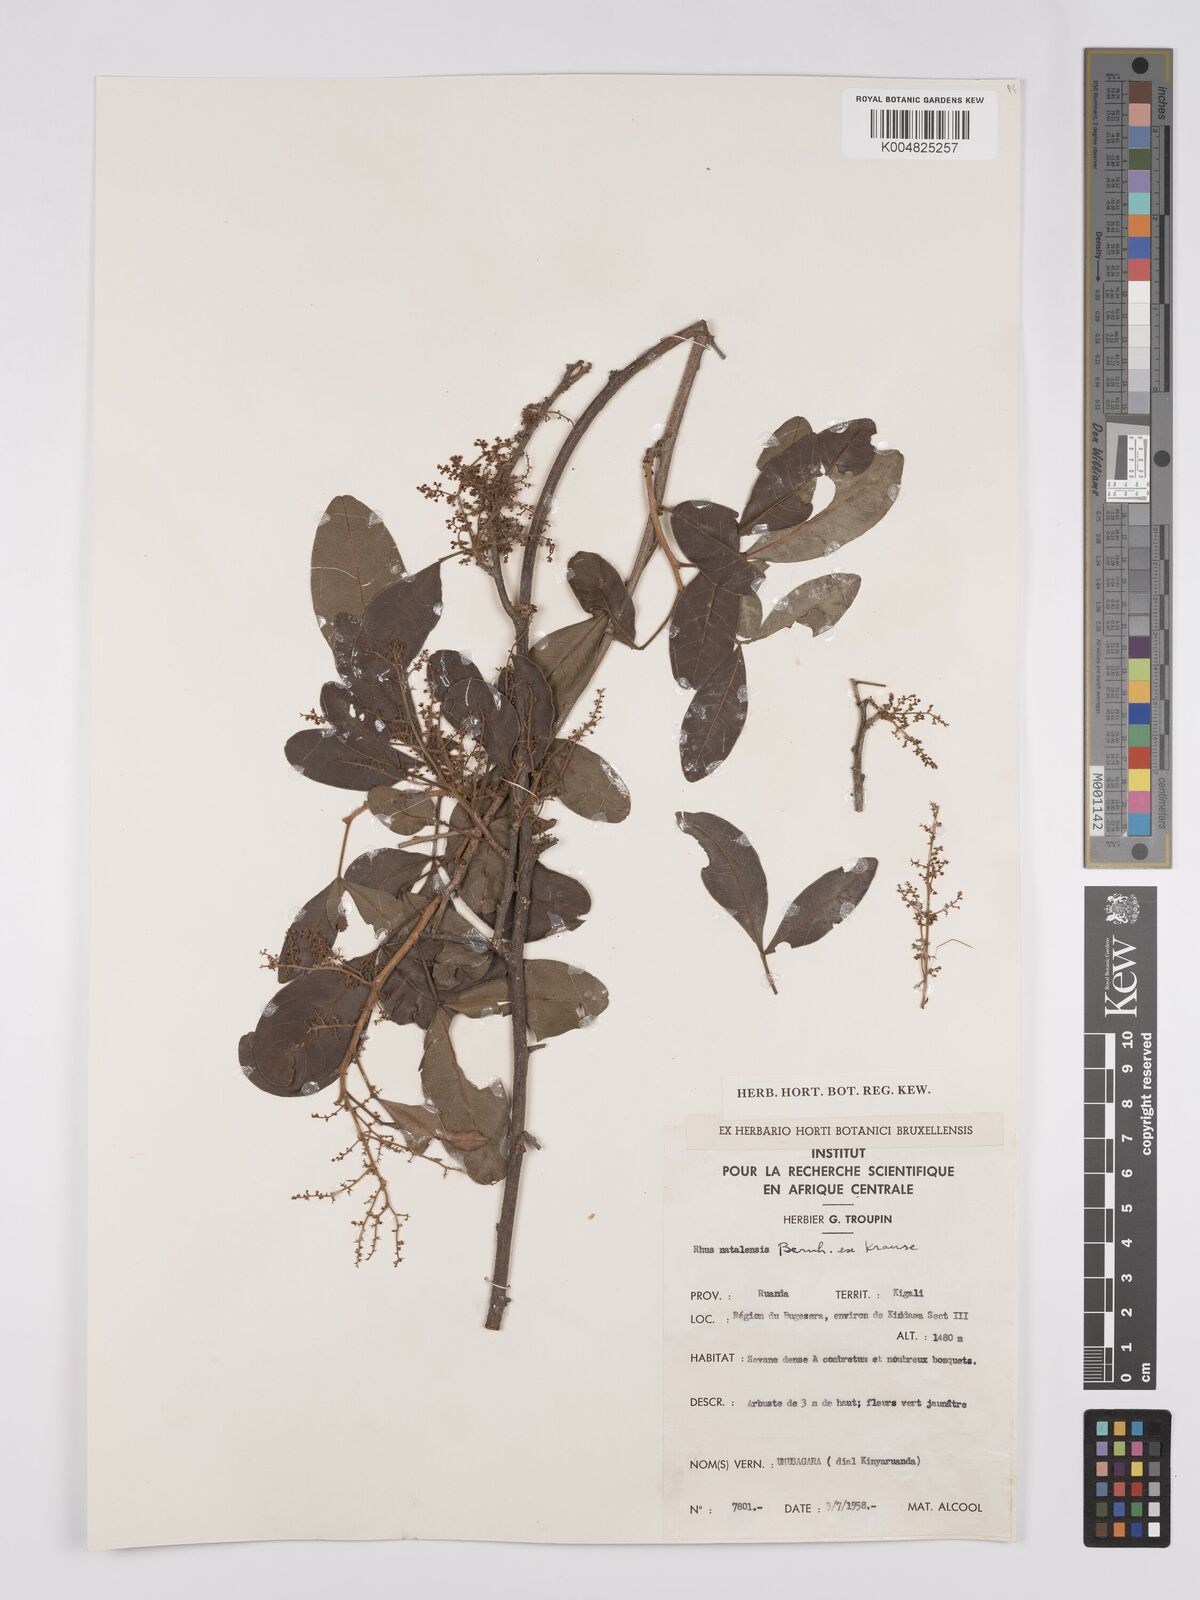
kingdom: Plantae
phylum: Tracheophyta
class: Magnoliopsida
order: Sapindales
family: Anacardiaceae
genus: Searsia
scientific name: Searsia natalensis
